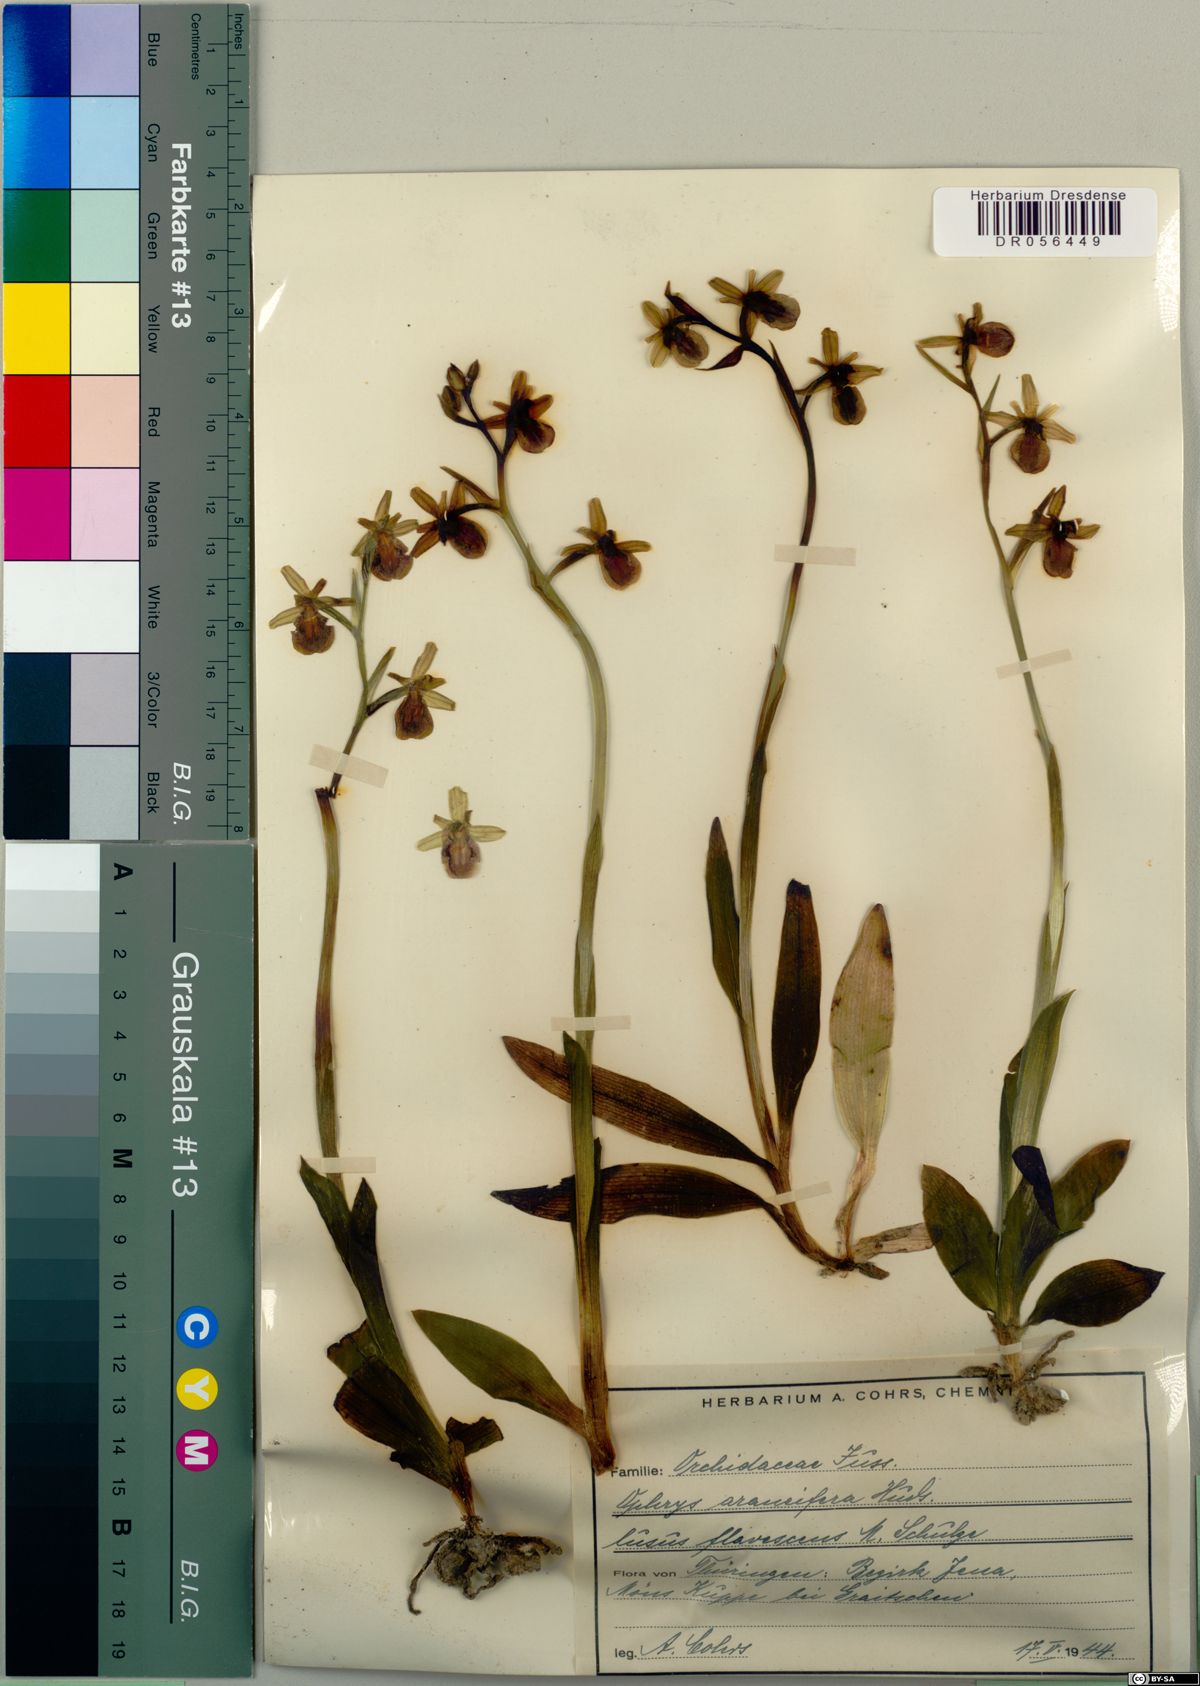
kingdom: Plantae
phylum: Tracheophyta
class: Liliopsida
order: Asparagales
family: Orchidaceae
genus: Ophrys
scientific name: Ophrys sphegodes
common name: Early spider-orchid
